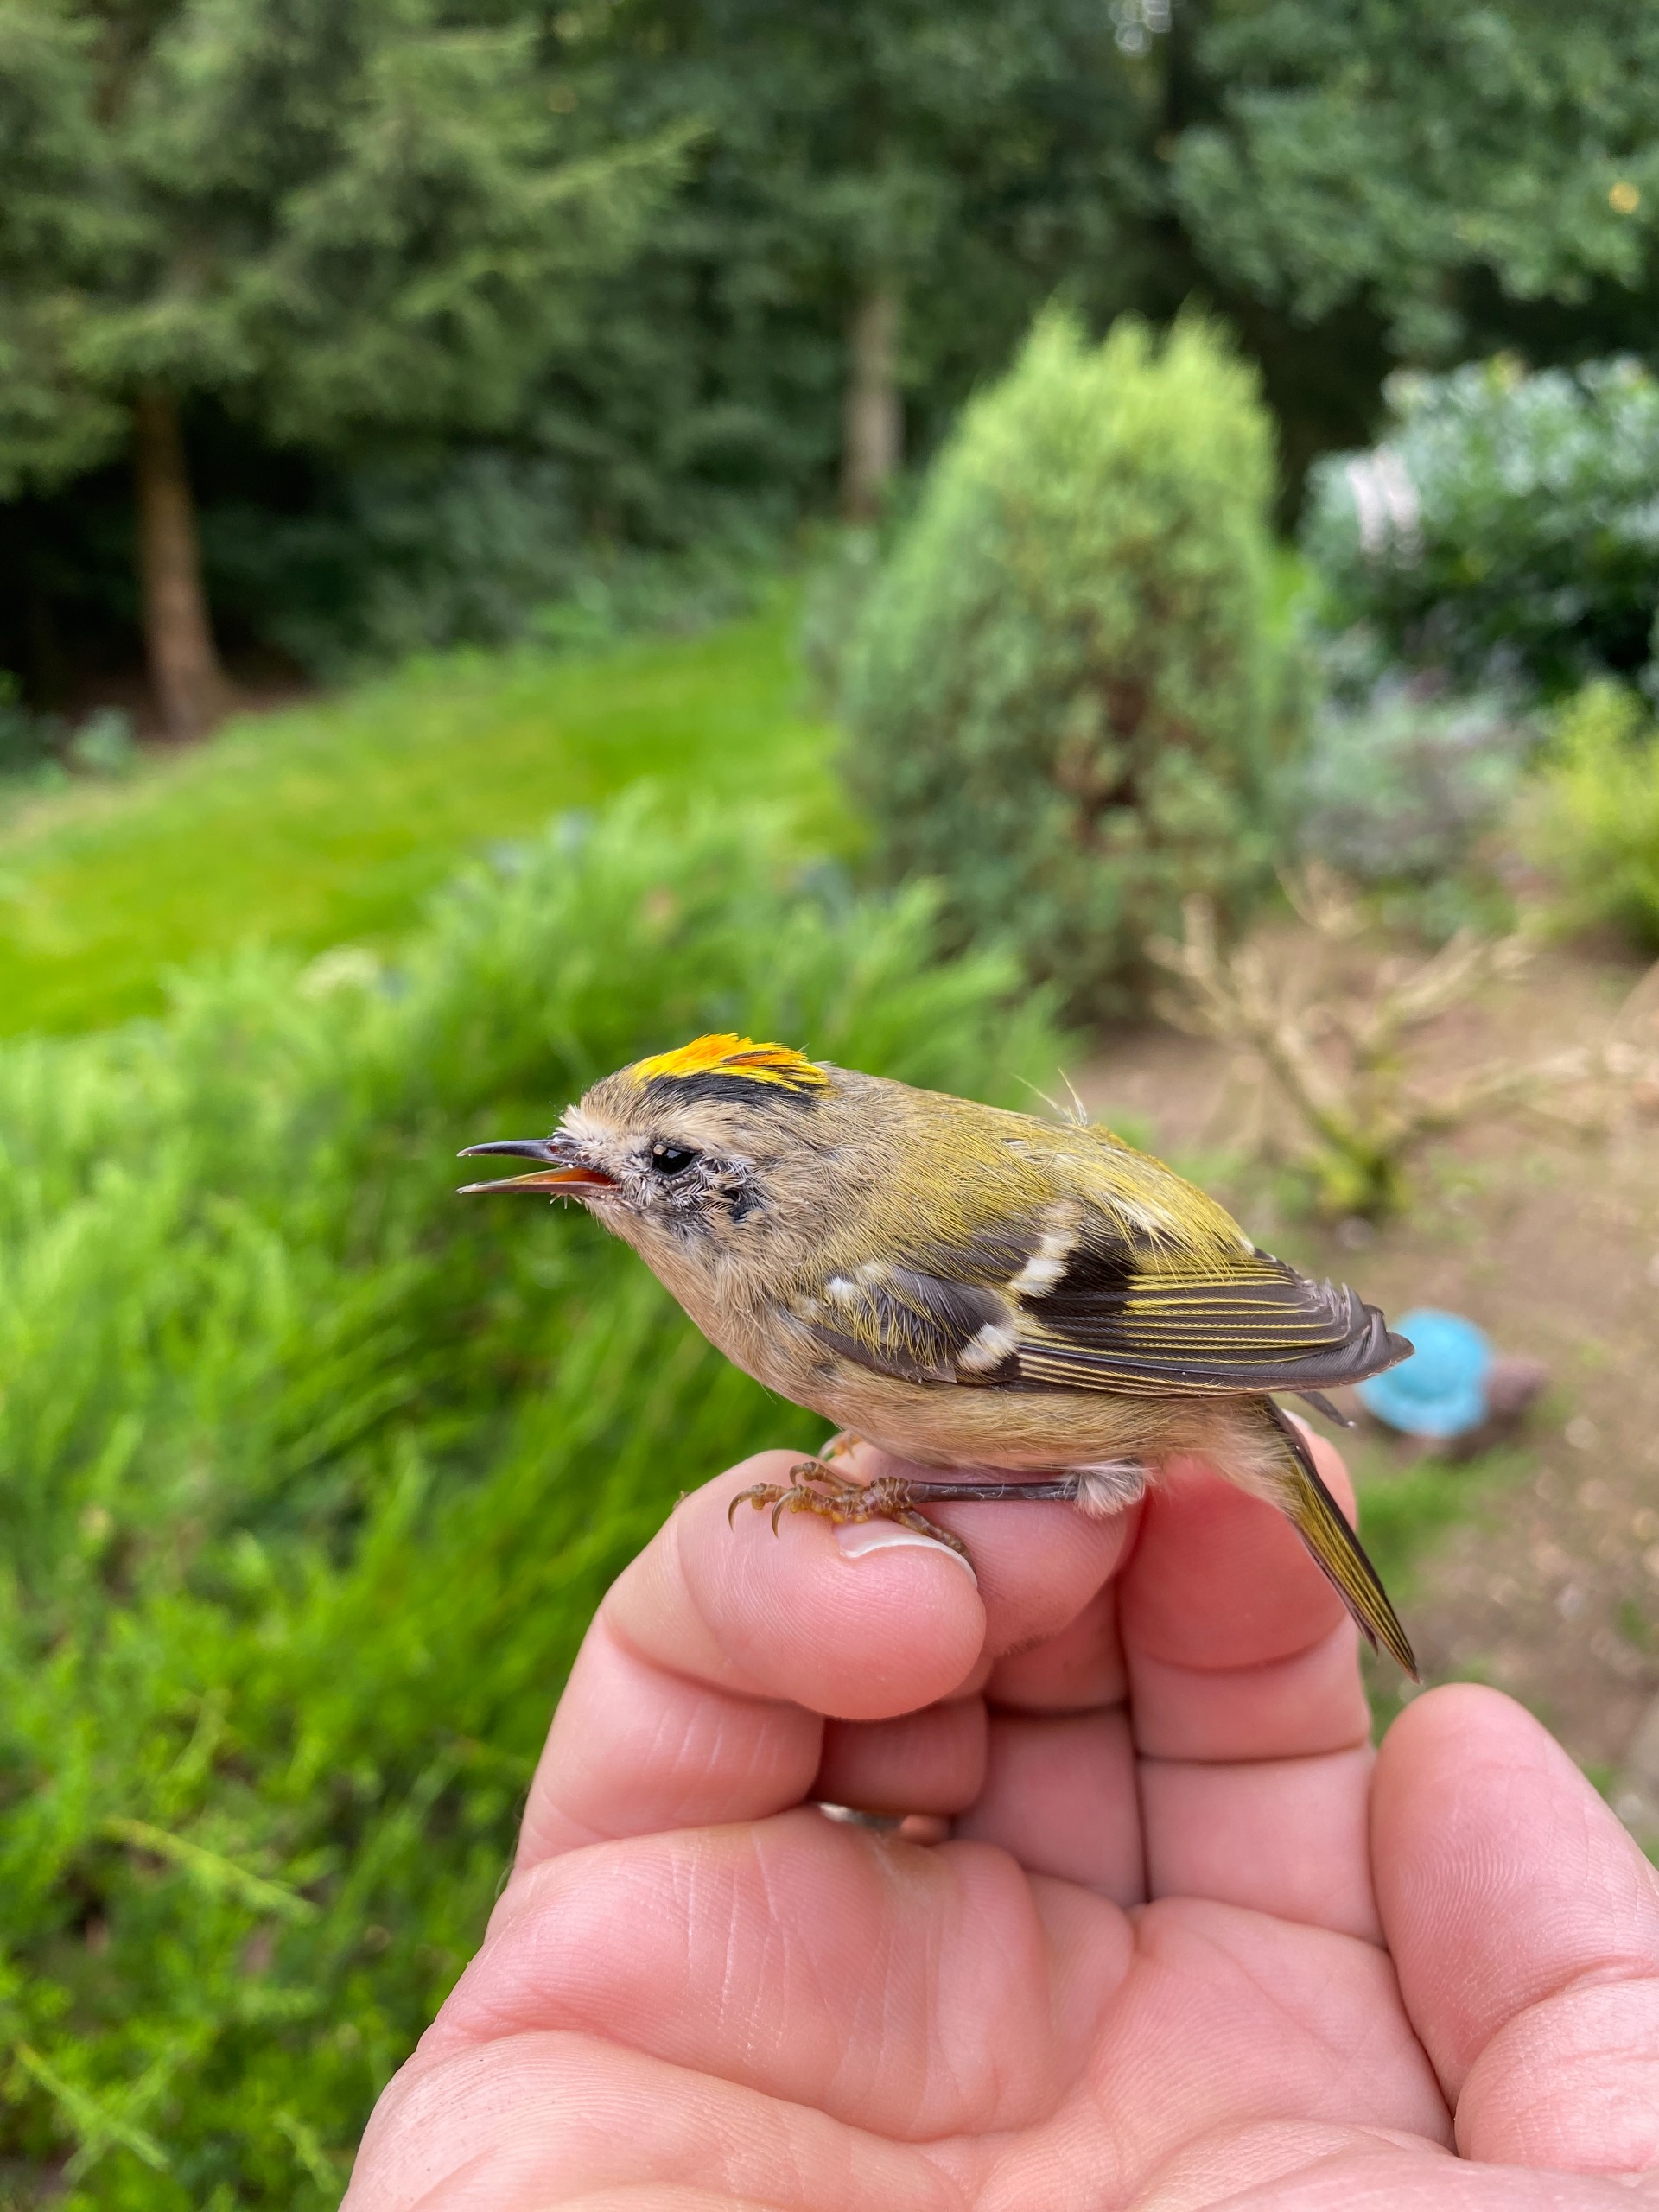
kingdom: Animalia
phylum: Chordata
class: Aves
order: Passeriformes
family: Regulidae
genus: Regulus
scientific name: Regulus regulus
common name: Fuglekonge
